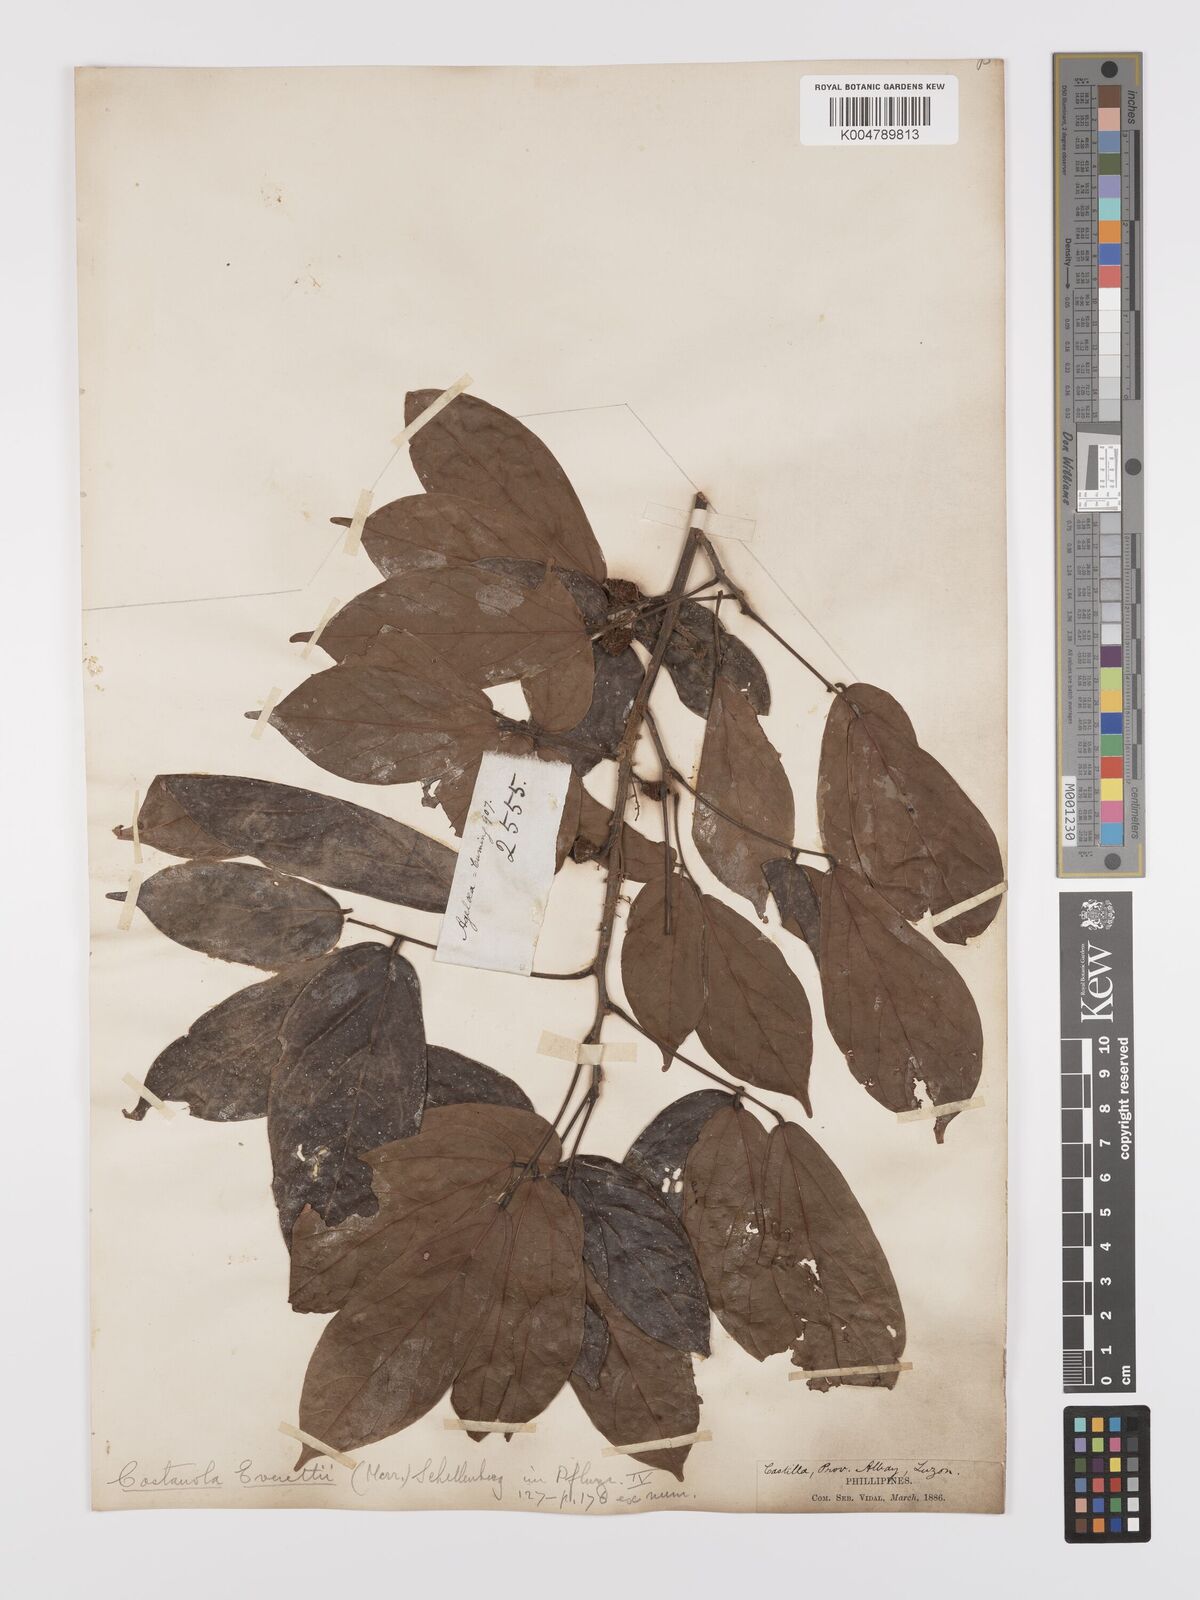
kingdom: Plantae
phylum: Tracheophyta
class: Magnoliopsida
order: Oxalidales
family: Connaraceae
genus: Agelaea
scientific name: Agelaea borneensis
